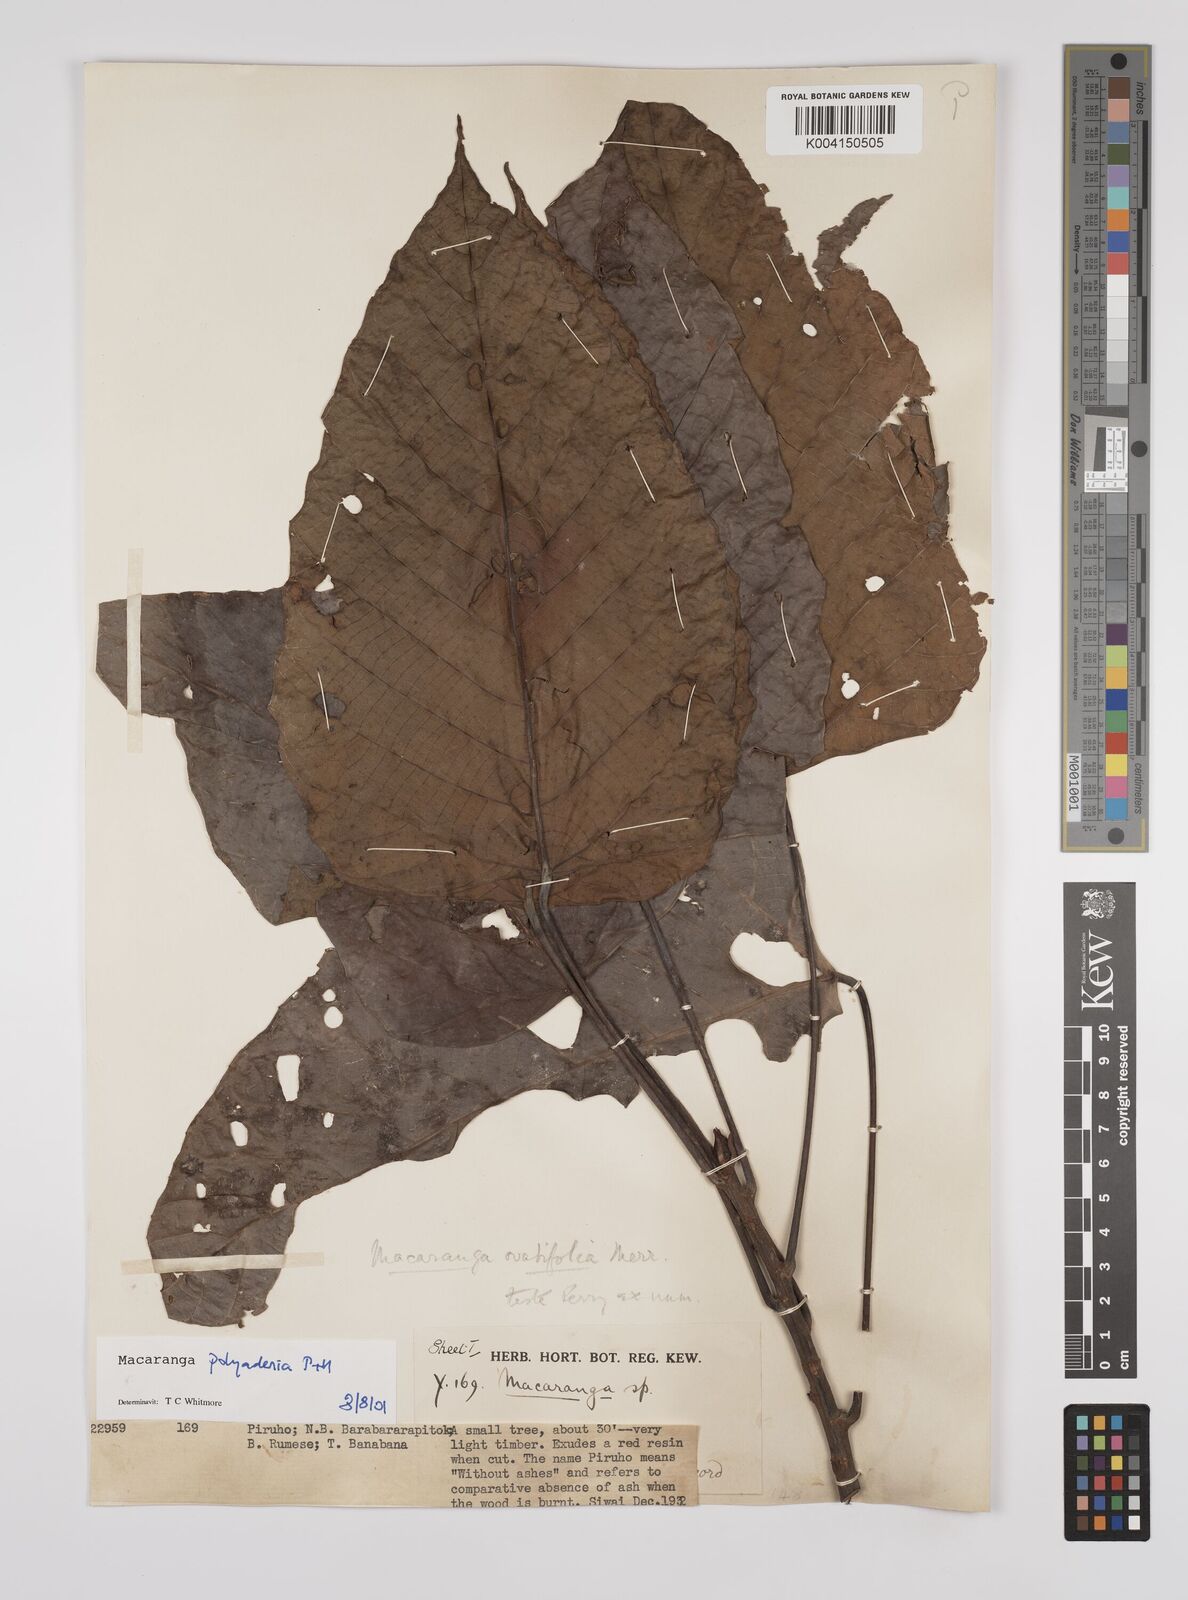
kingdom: Plantae
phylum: Tracheophyta
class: Magnoliopsida
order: Malpighiales
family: Euphorbiaceae
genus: Macaranga
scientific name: Macaranga polyadenia
